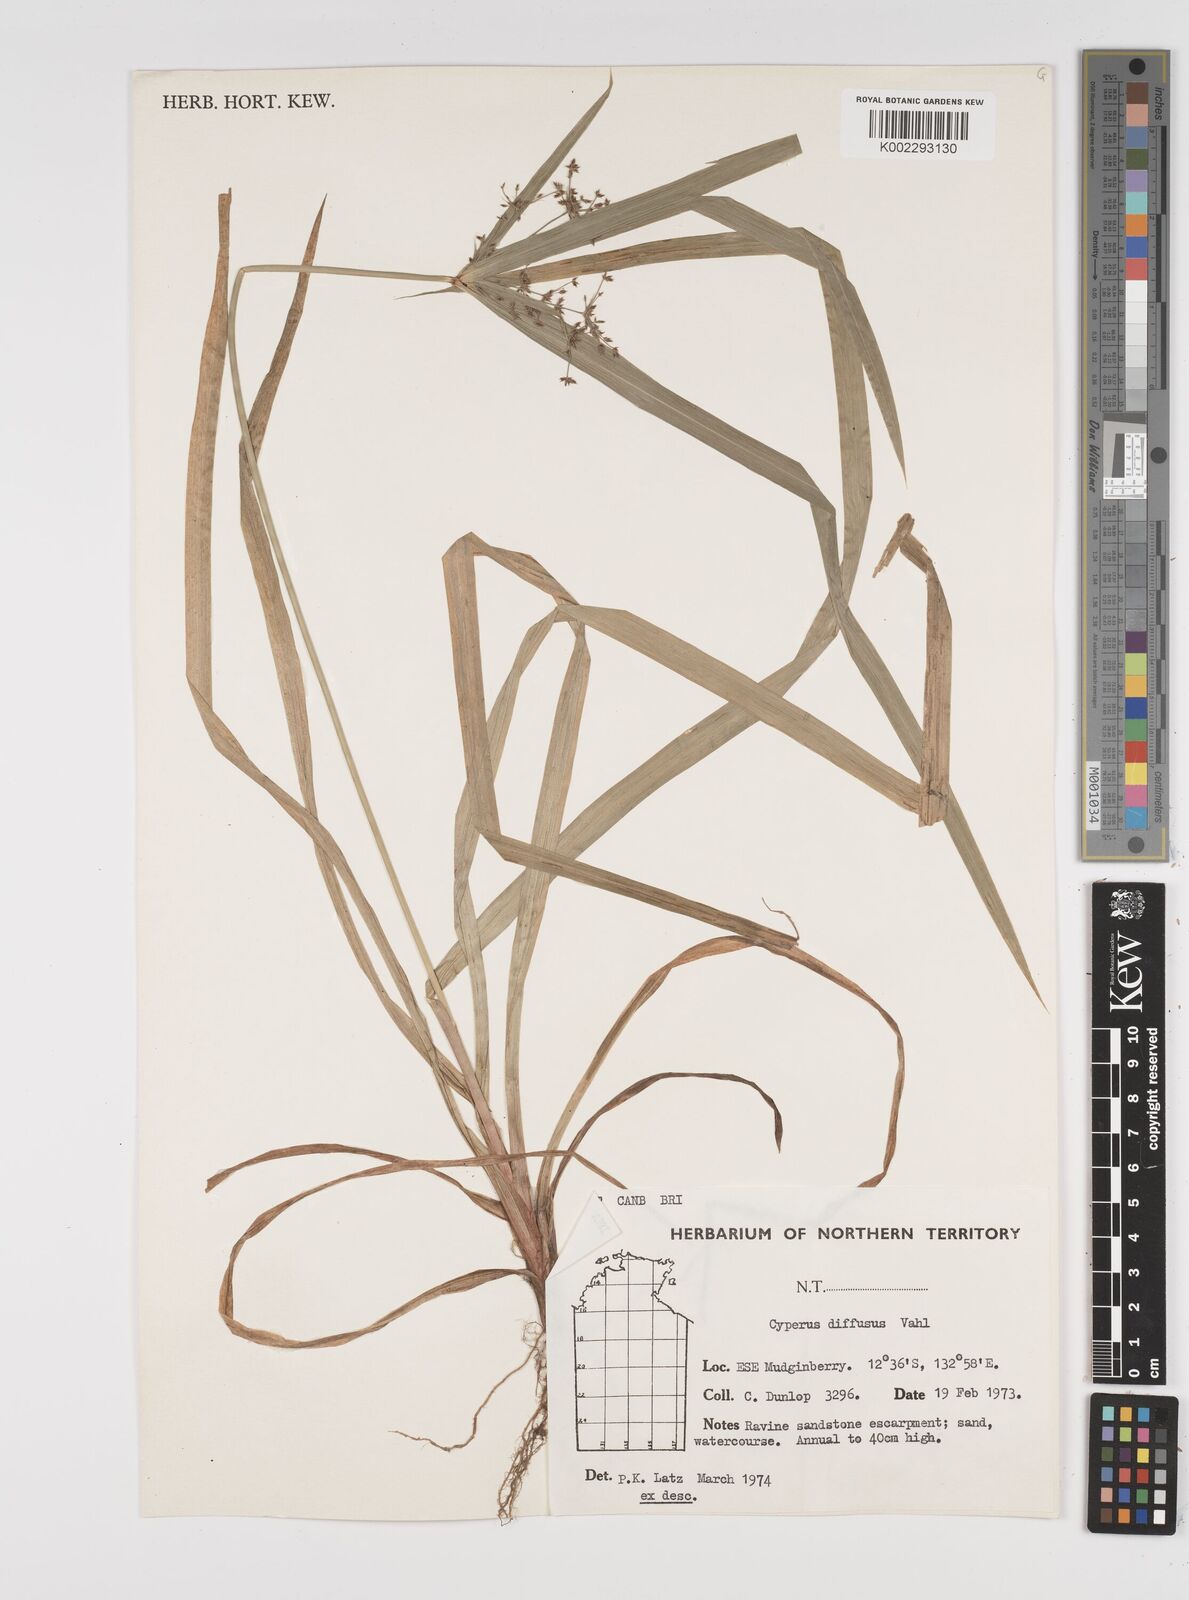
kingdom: Plantae
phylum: Tracheophyta
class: Liliopsida
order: Poales
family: Cyperaceae
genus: Cyperus
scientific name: Cyperus laxus
